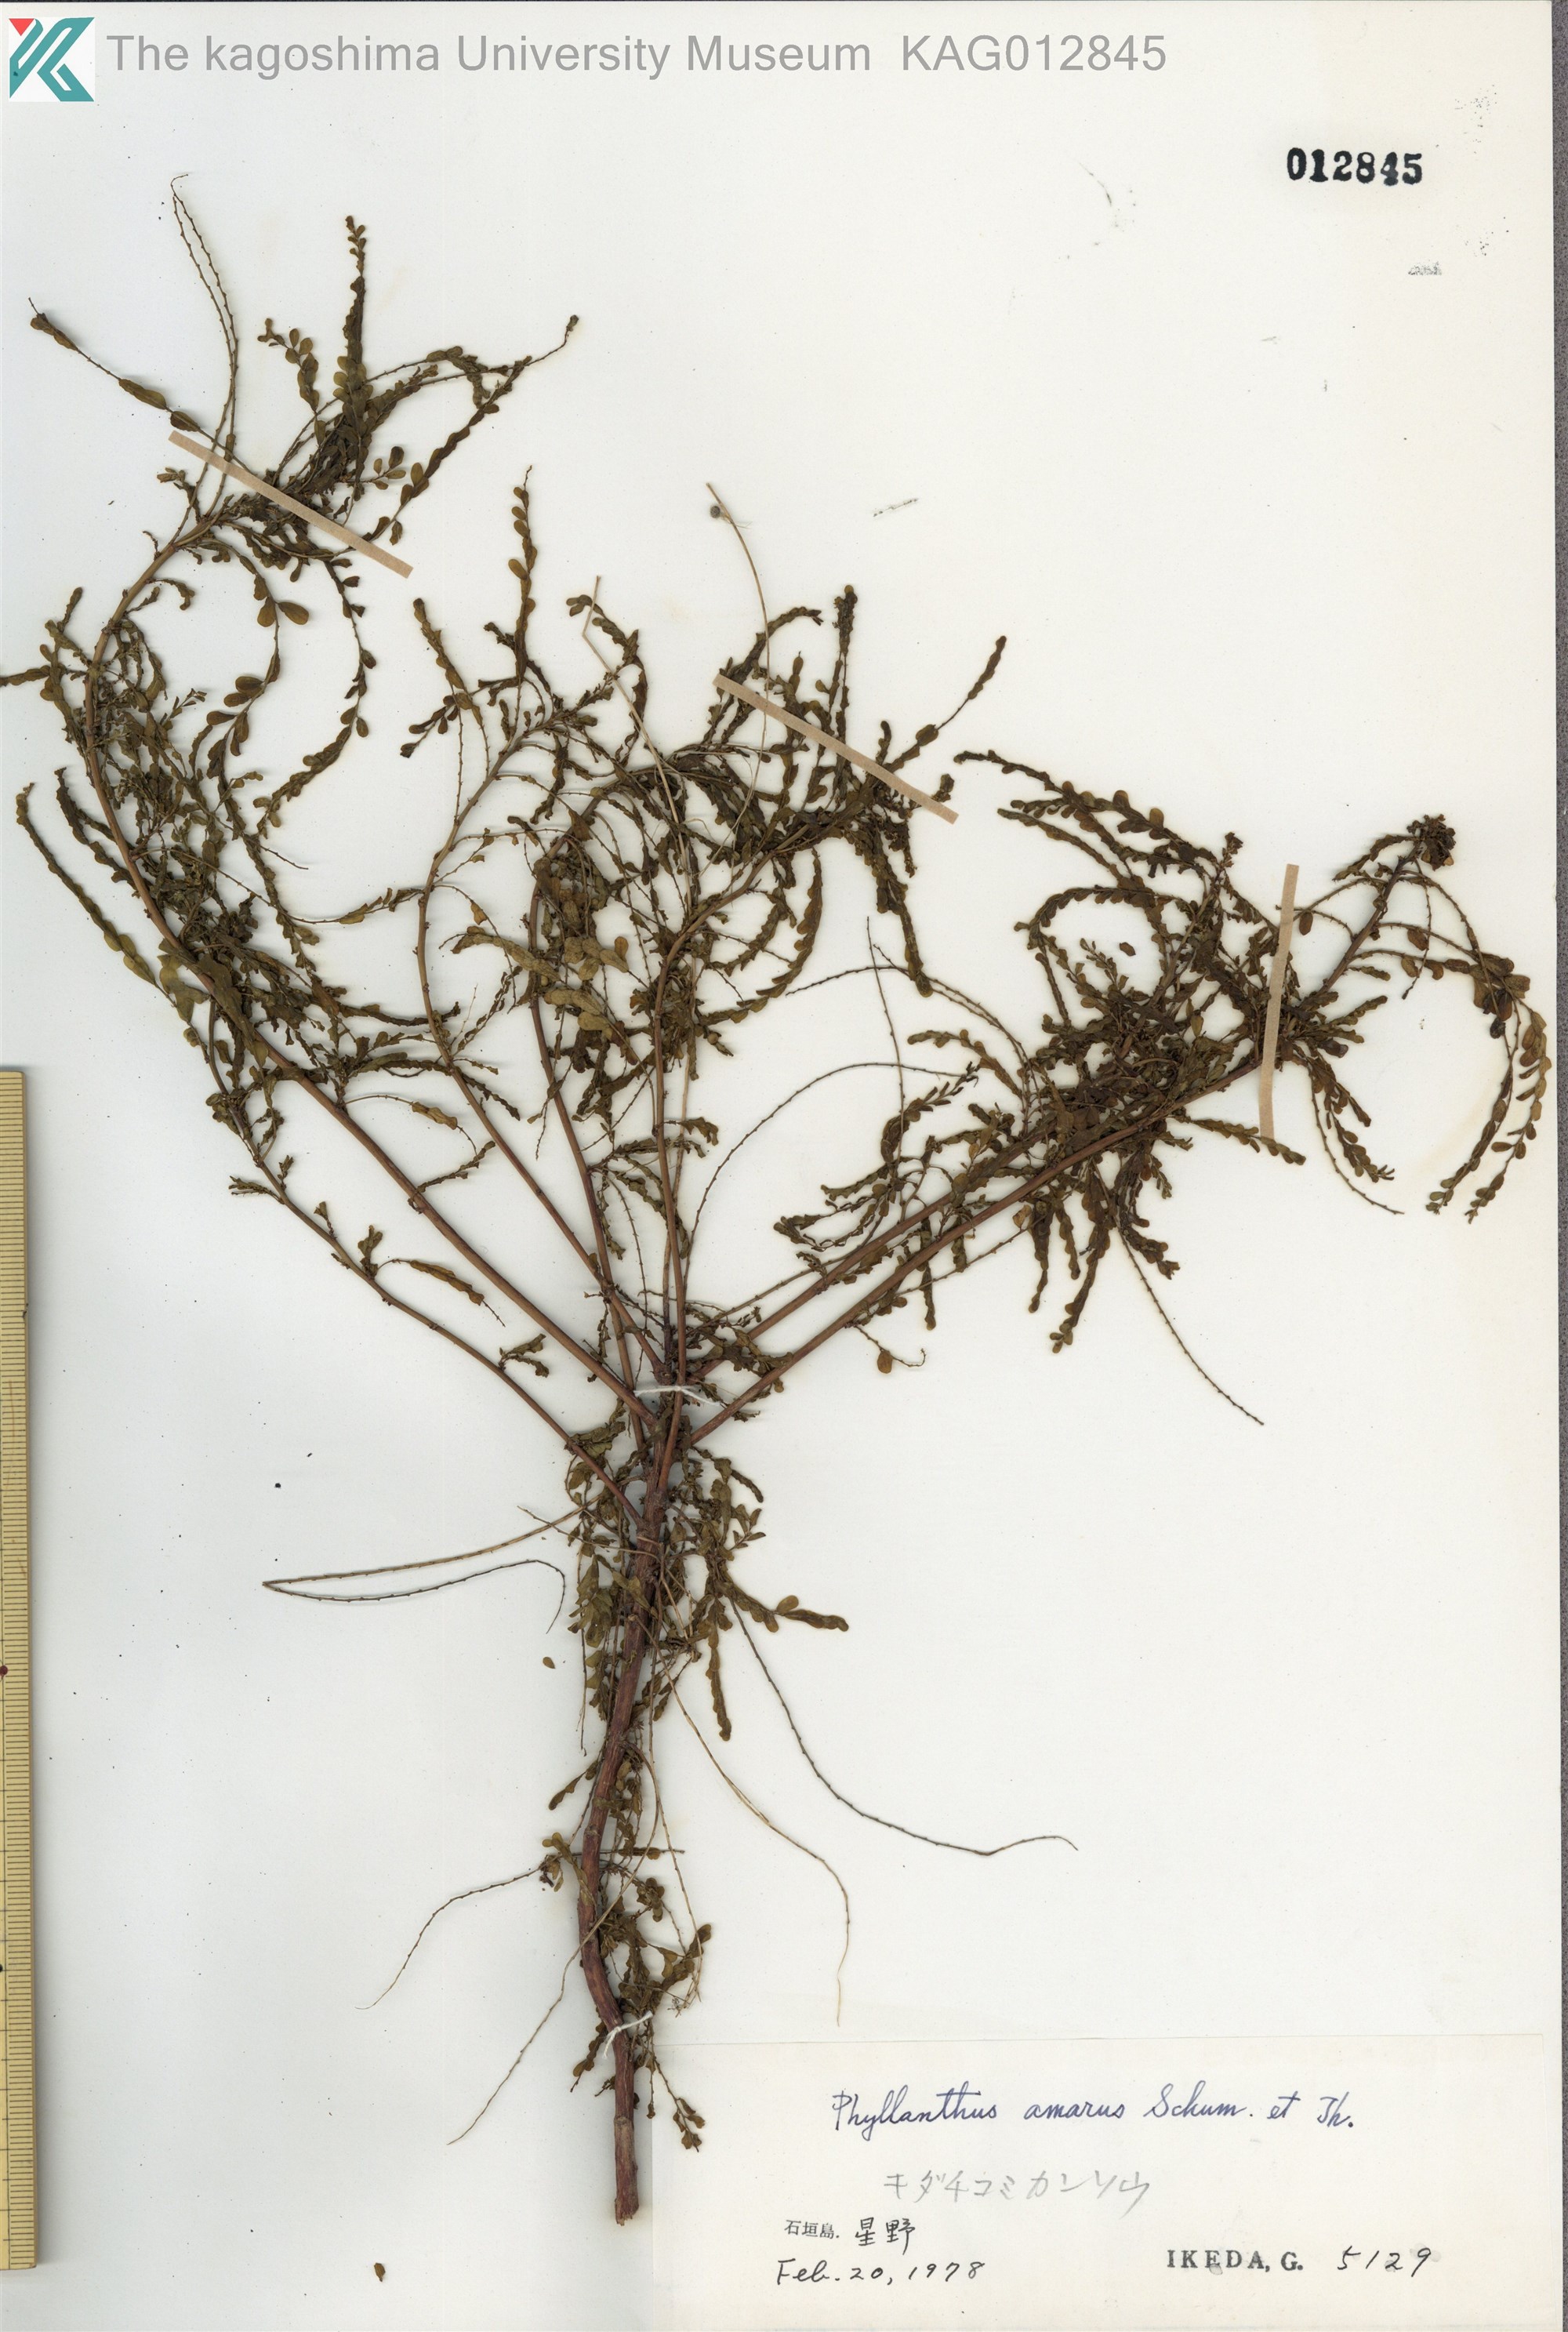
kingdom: Plantae
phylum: Tracheophyta
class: Magnoliopsida
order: Malpighiales
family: Phyllanthaceae
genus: Phyllanthus
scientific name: Phyllanthus amarus
